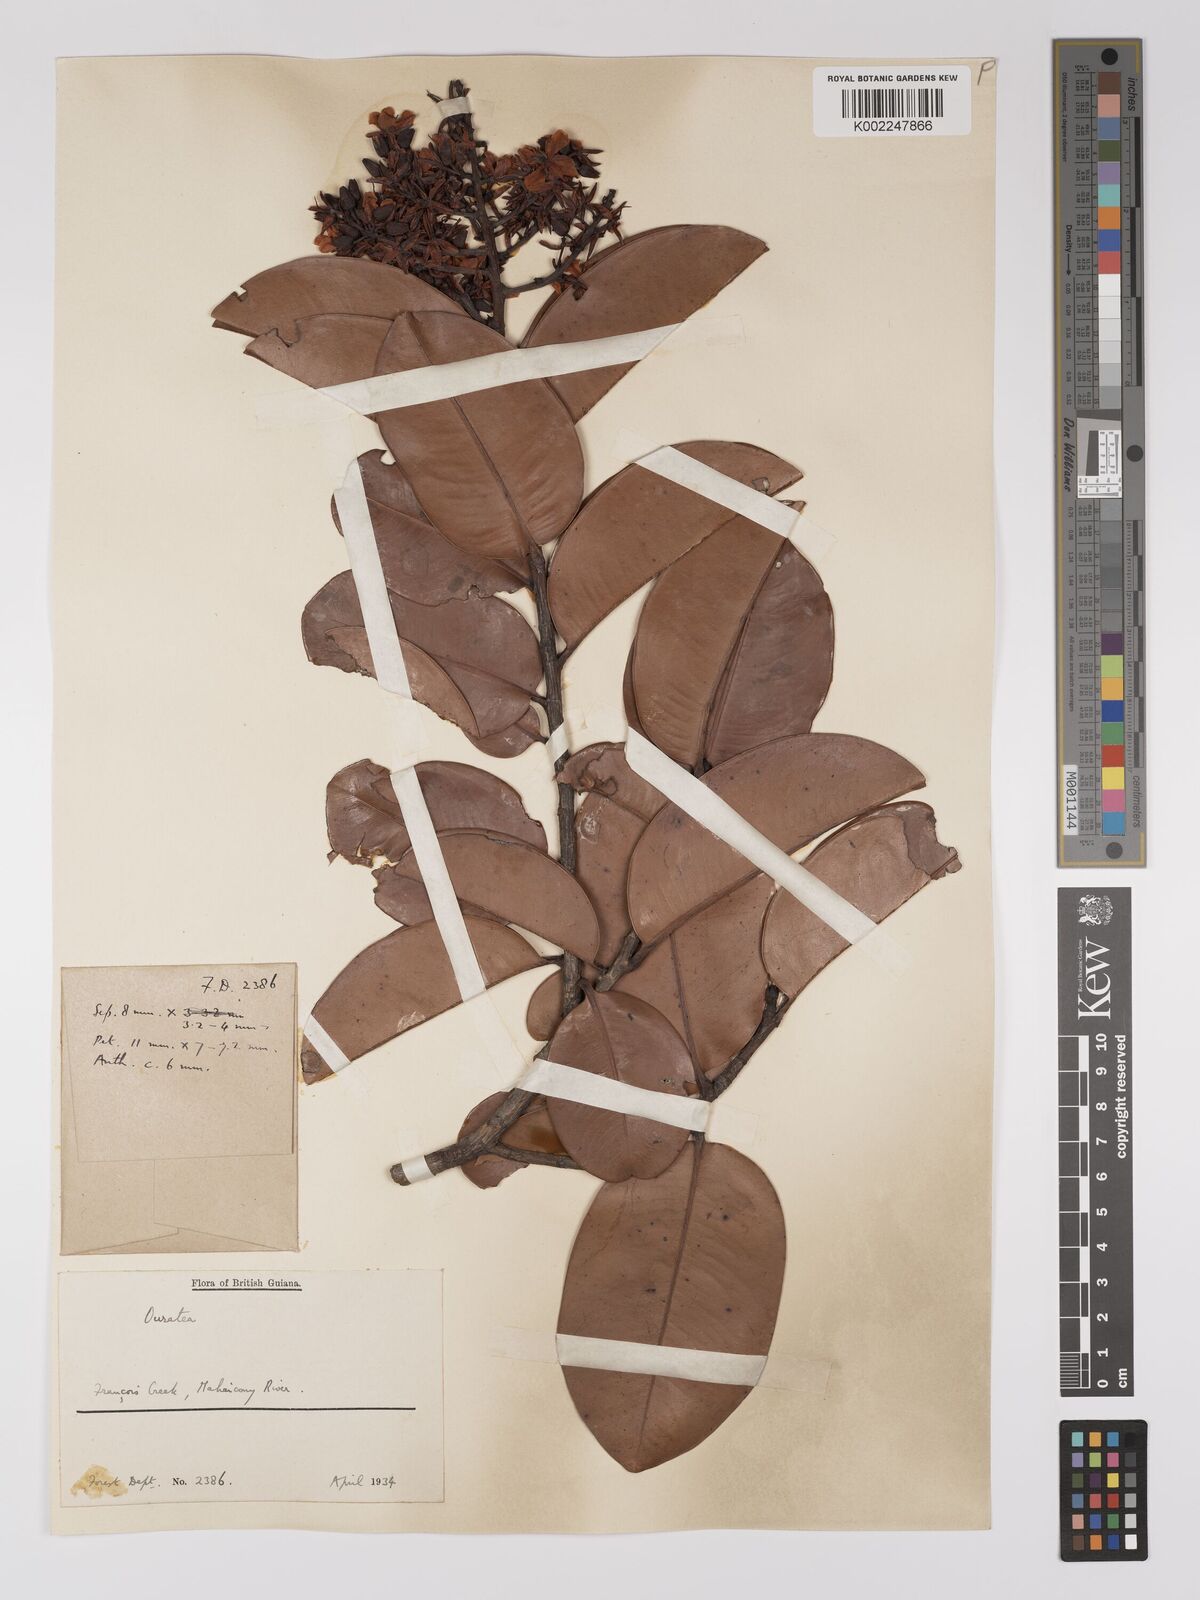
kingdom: Plantae
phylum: Tracheophyta
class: Magnoliopsida
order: Malpighiales
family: Ochnaceae
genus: Ouratea
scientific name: Ouratea
